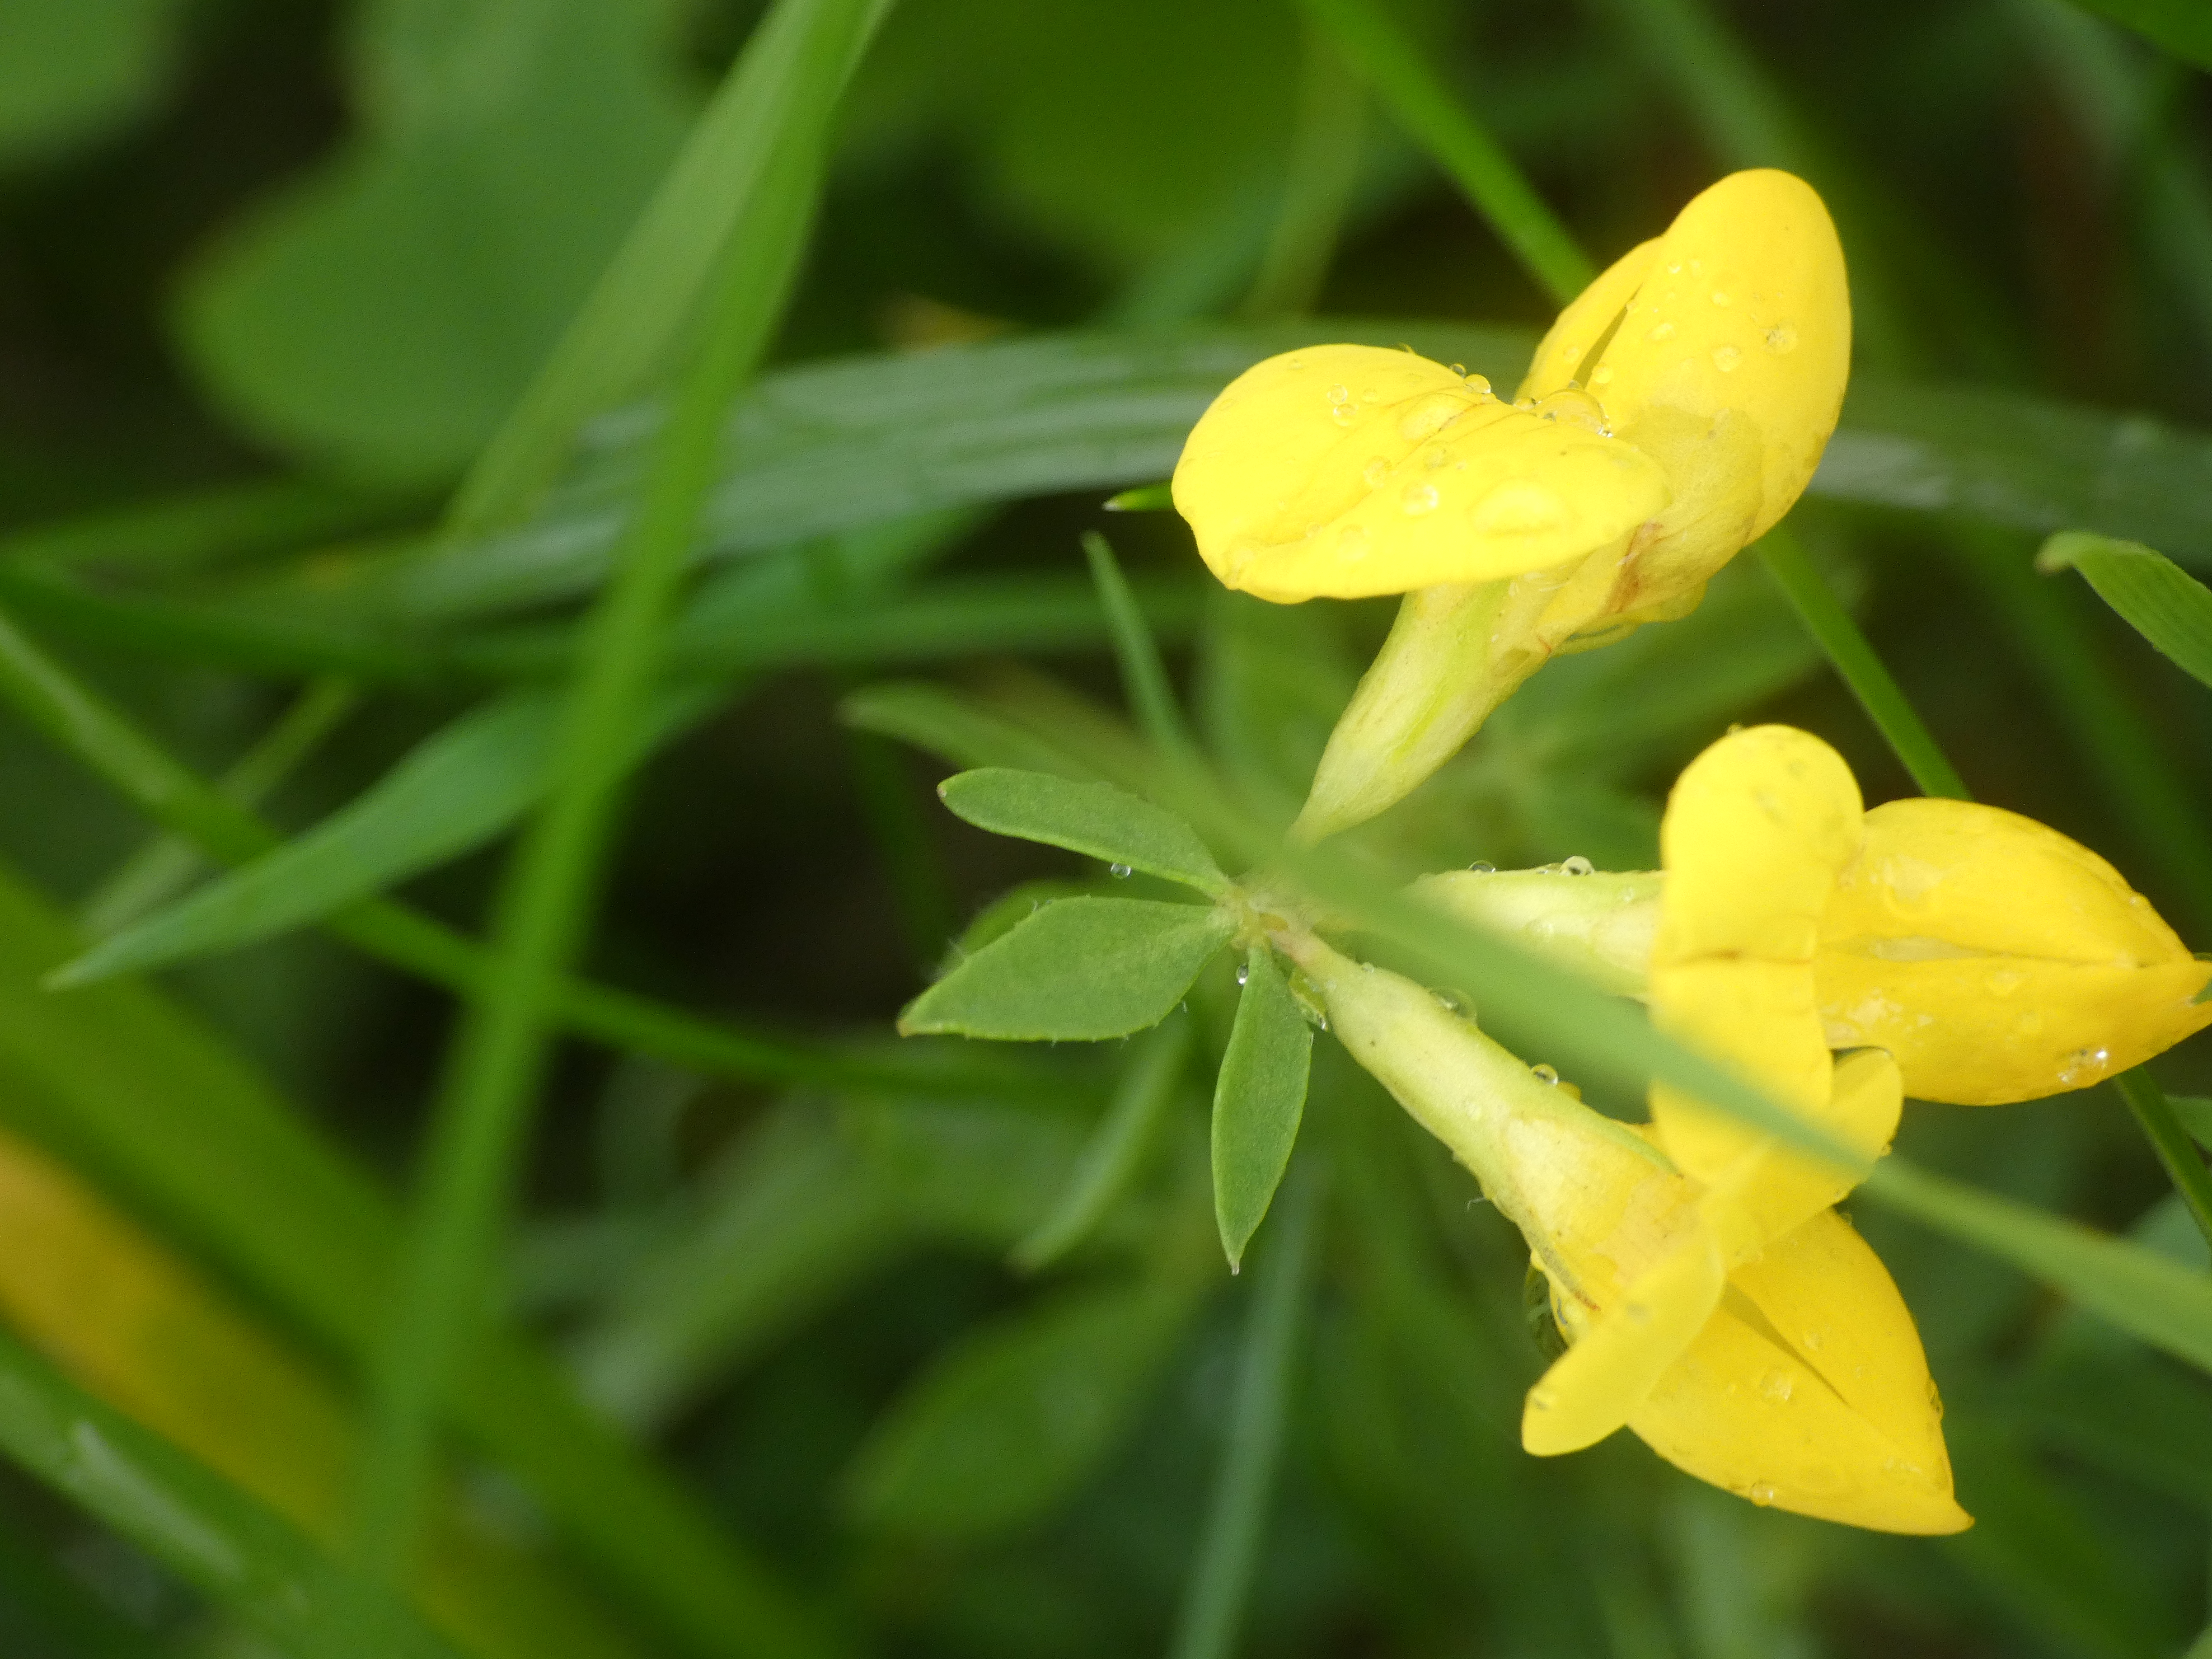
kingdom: Plantae
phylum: Tracheophyta
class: Magnoliopsida
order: Fabales
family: Fabaceae
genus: Lotus
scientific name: Lotus corniculatus
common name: Almindelig kællingetand
